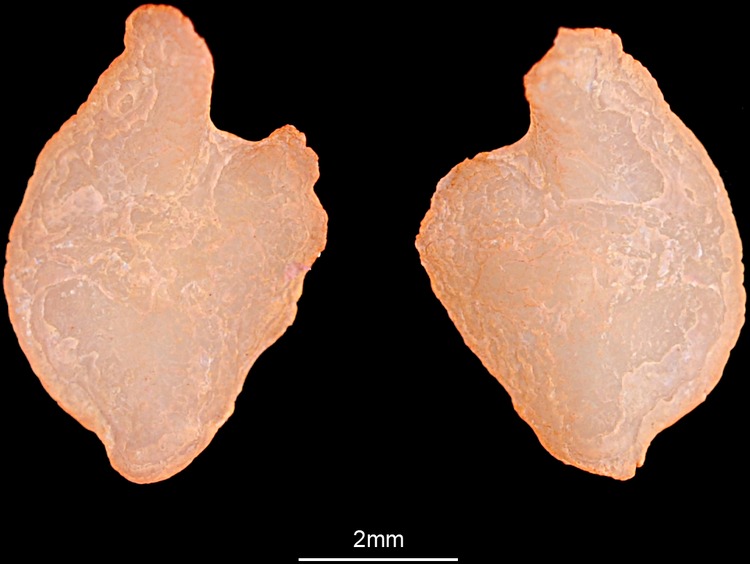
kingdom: Animalia
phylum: Chordata
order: Perciformes
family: Gobiidae
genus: Zosterisessor
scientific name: Zosterisessor ophiocephalus
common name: Grass goby
